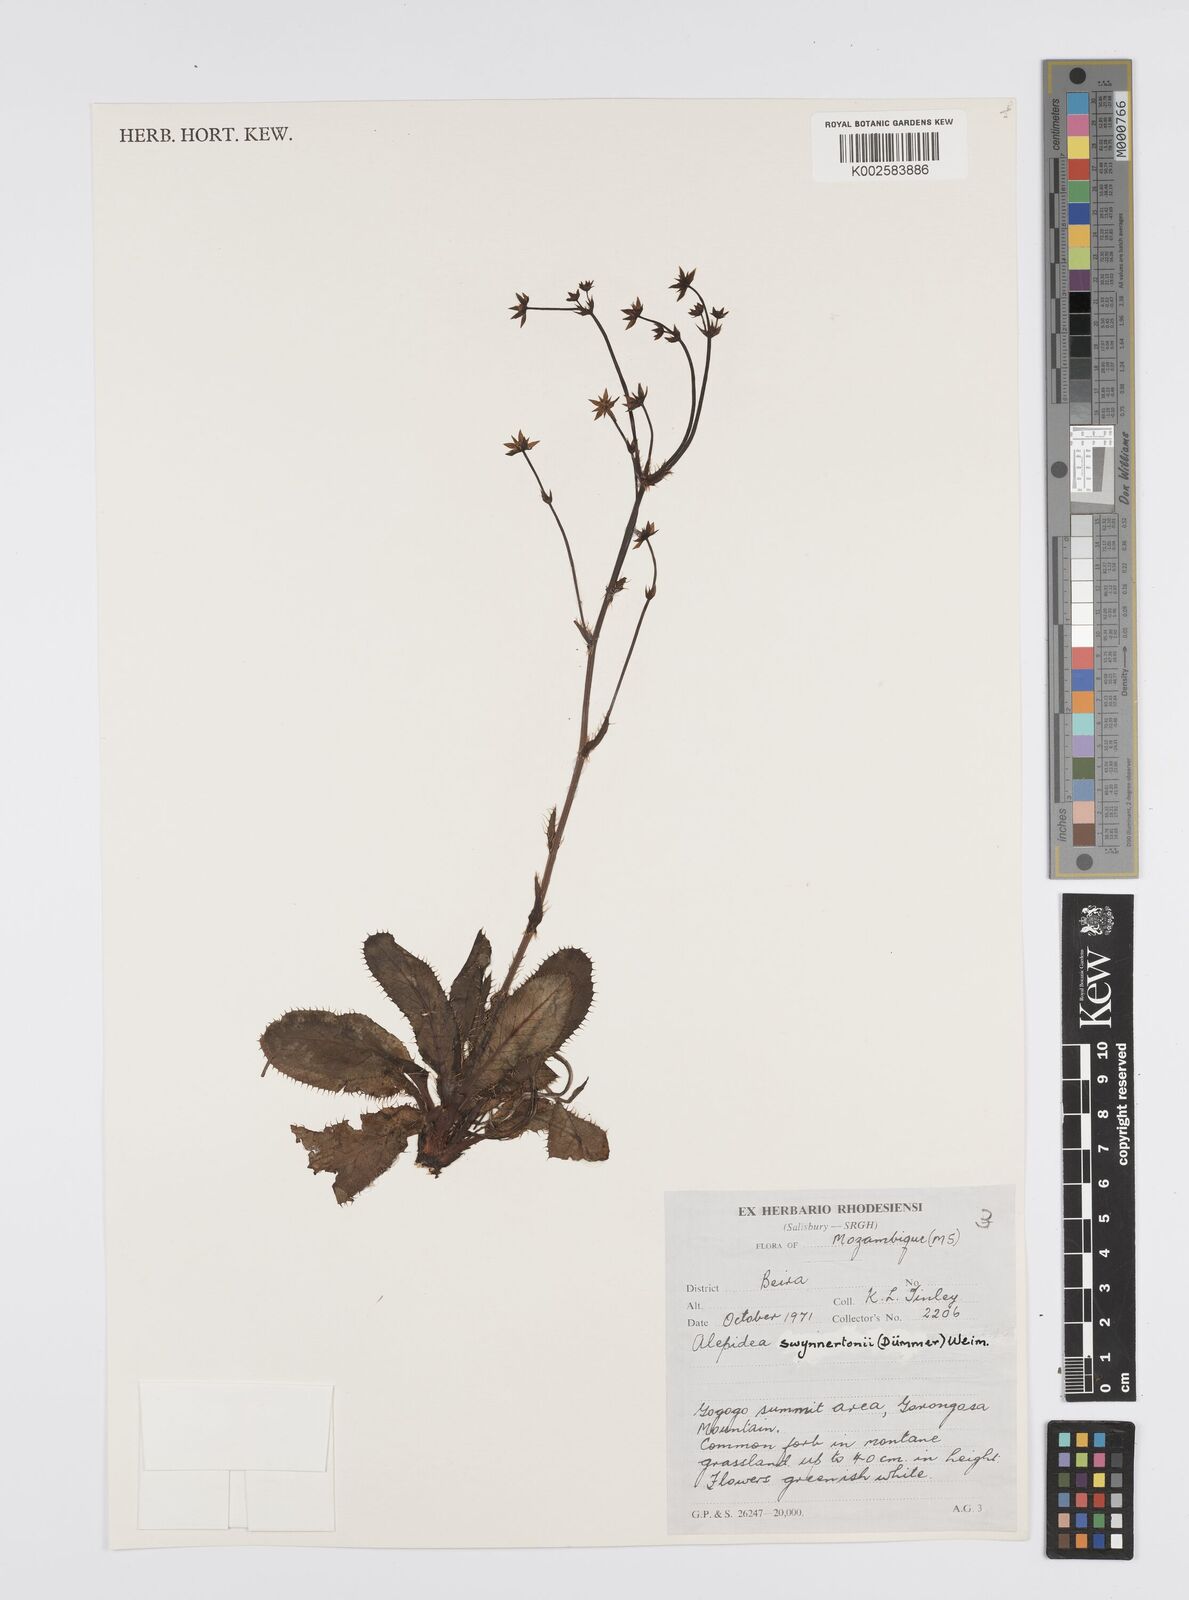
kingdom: Plantae
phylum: Tracheophyta
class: Magnoliopsida
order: Apiales
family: Apiaceae
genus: Alepidea
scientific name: Alepidea peduncularis
